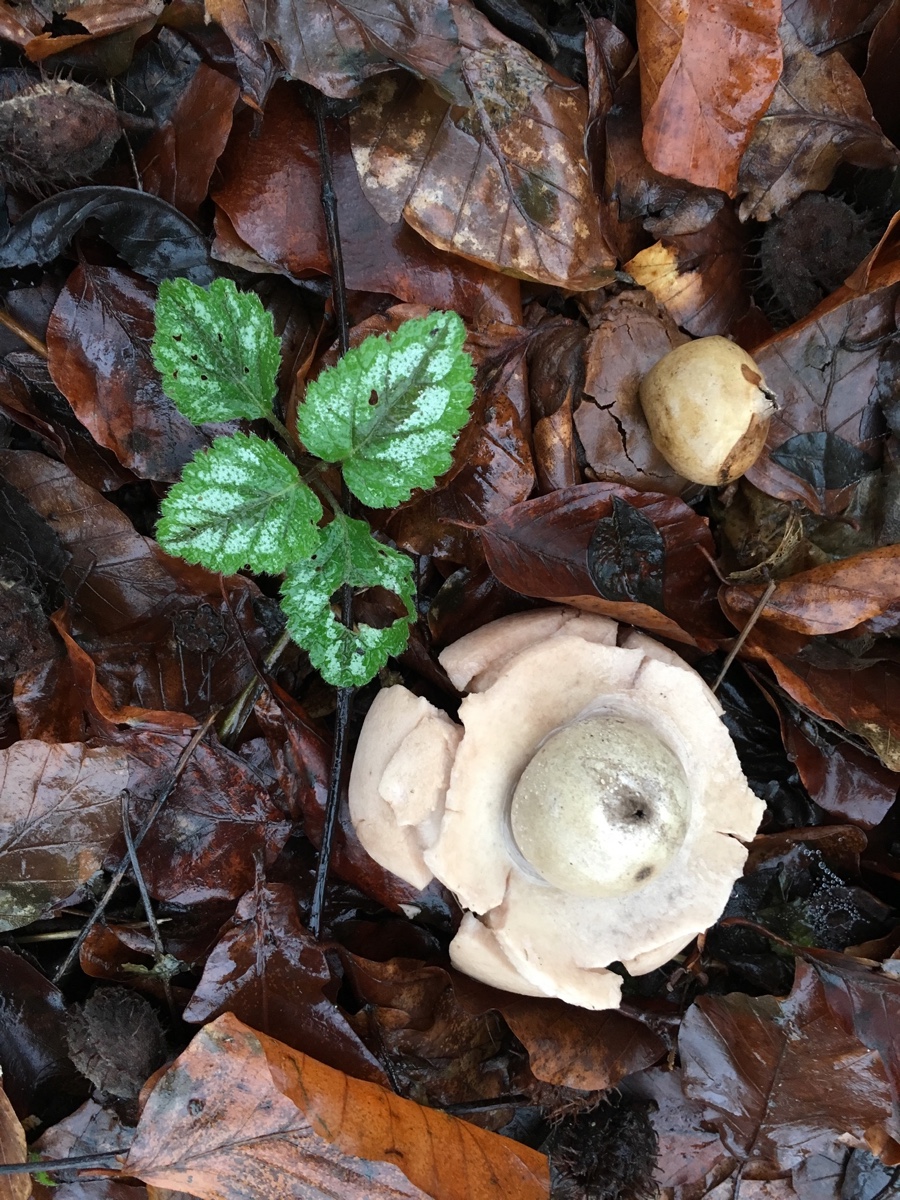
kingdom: Fungi
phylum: Basidiomycota
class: Agaricomycetes
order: Geastrales
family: Geastraceae
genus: Geastrum
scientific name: Geastrum michelianum
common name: kødet stjernebold
